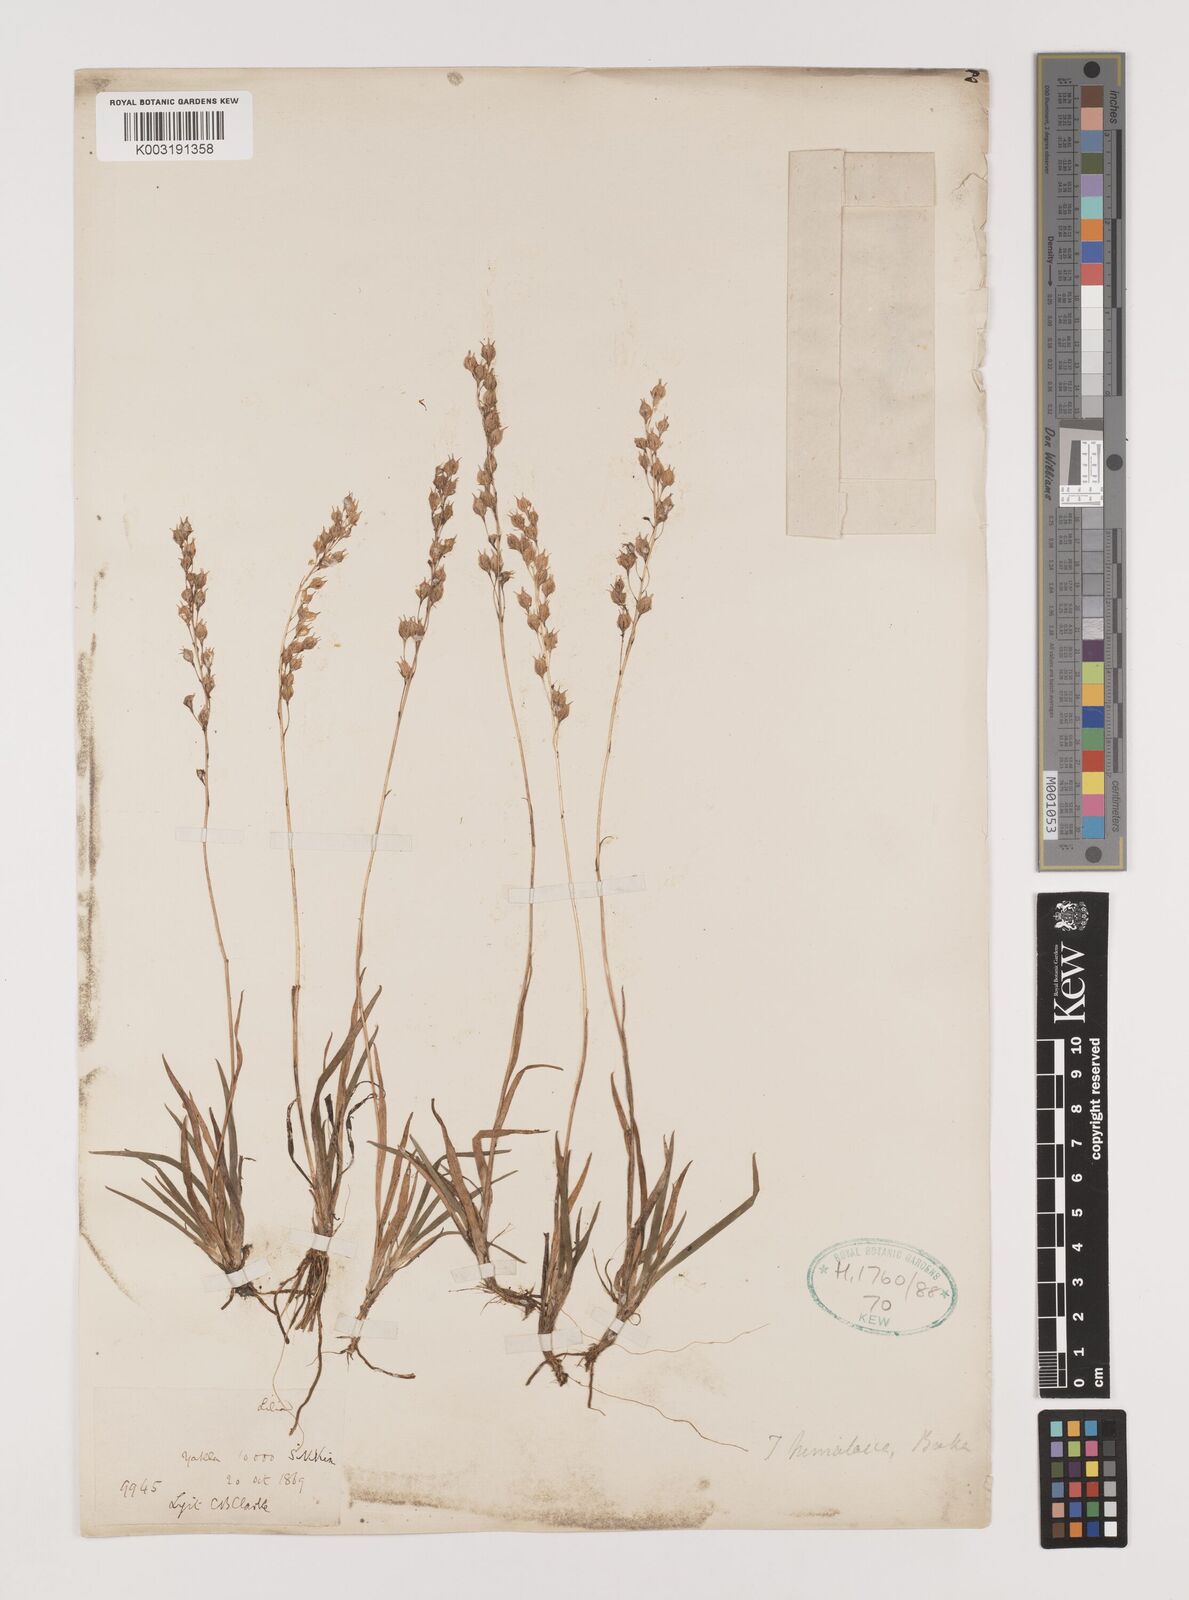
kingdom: Plantae
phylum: Tracheophyta
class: Liliopsida
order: Alismatales
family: Tofieldiaceae
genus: Tofieldia
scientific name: Tofieldia himalaica
